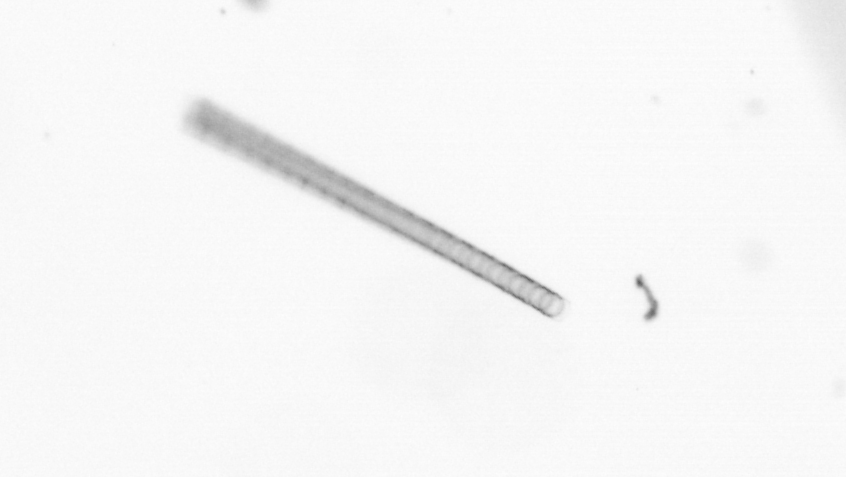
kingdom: Chromista
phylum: Ochrophyta
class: Bacillariophyceae
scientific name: Bacillariophyceae
